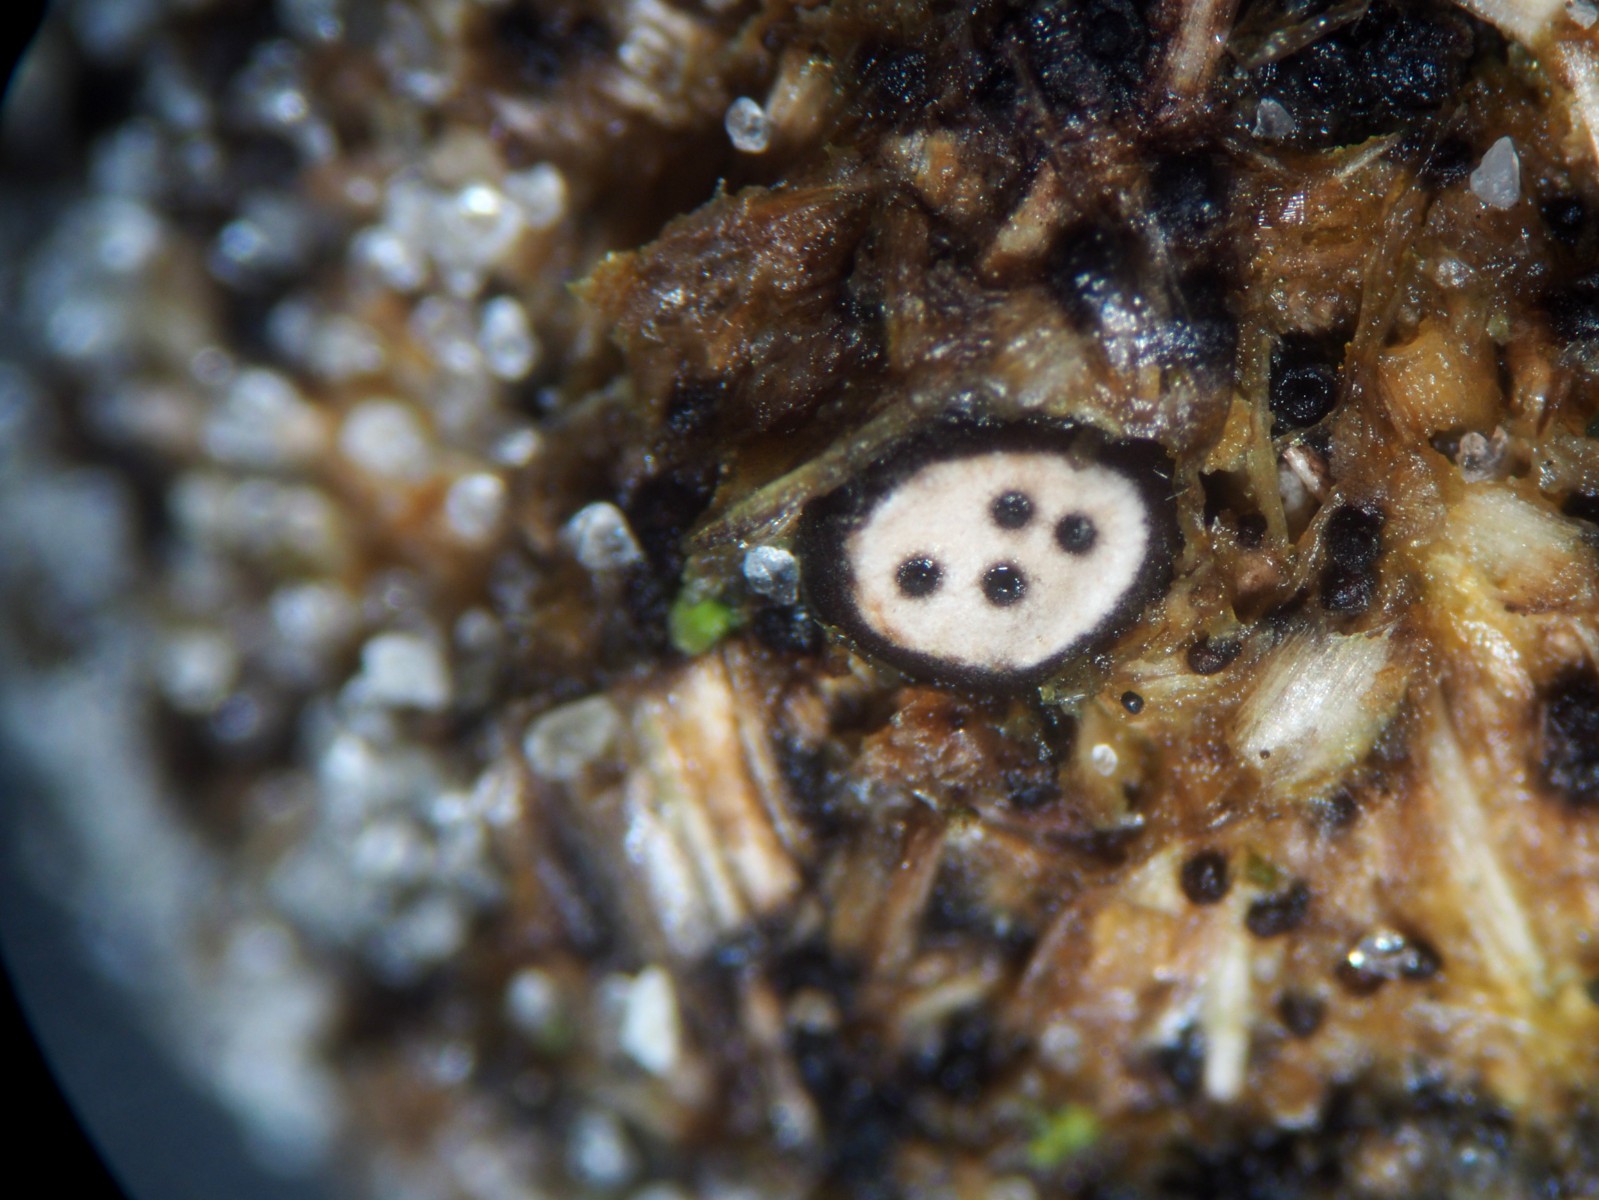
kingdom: Fungi
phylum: Ascomycota
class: Sordariomycetes
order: Xylariales
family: Xylariaceae
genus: Poronia
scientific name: Poronia erici
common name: hare-priksvamp
